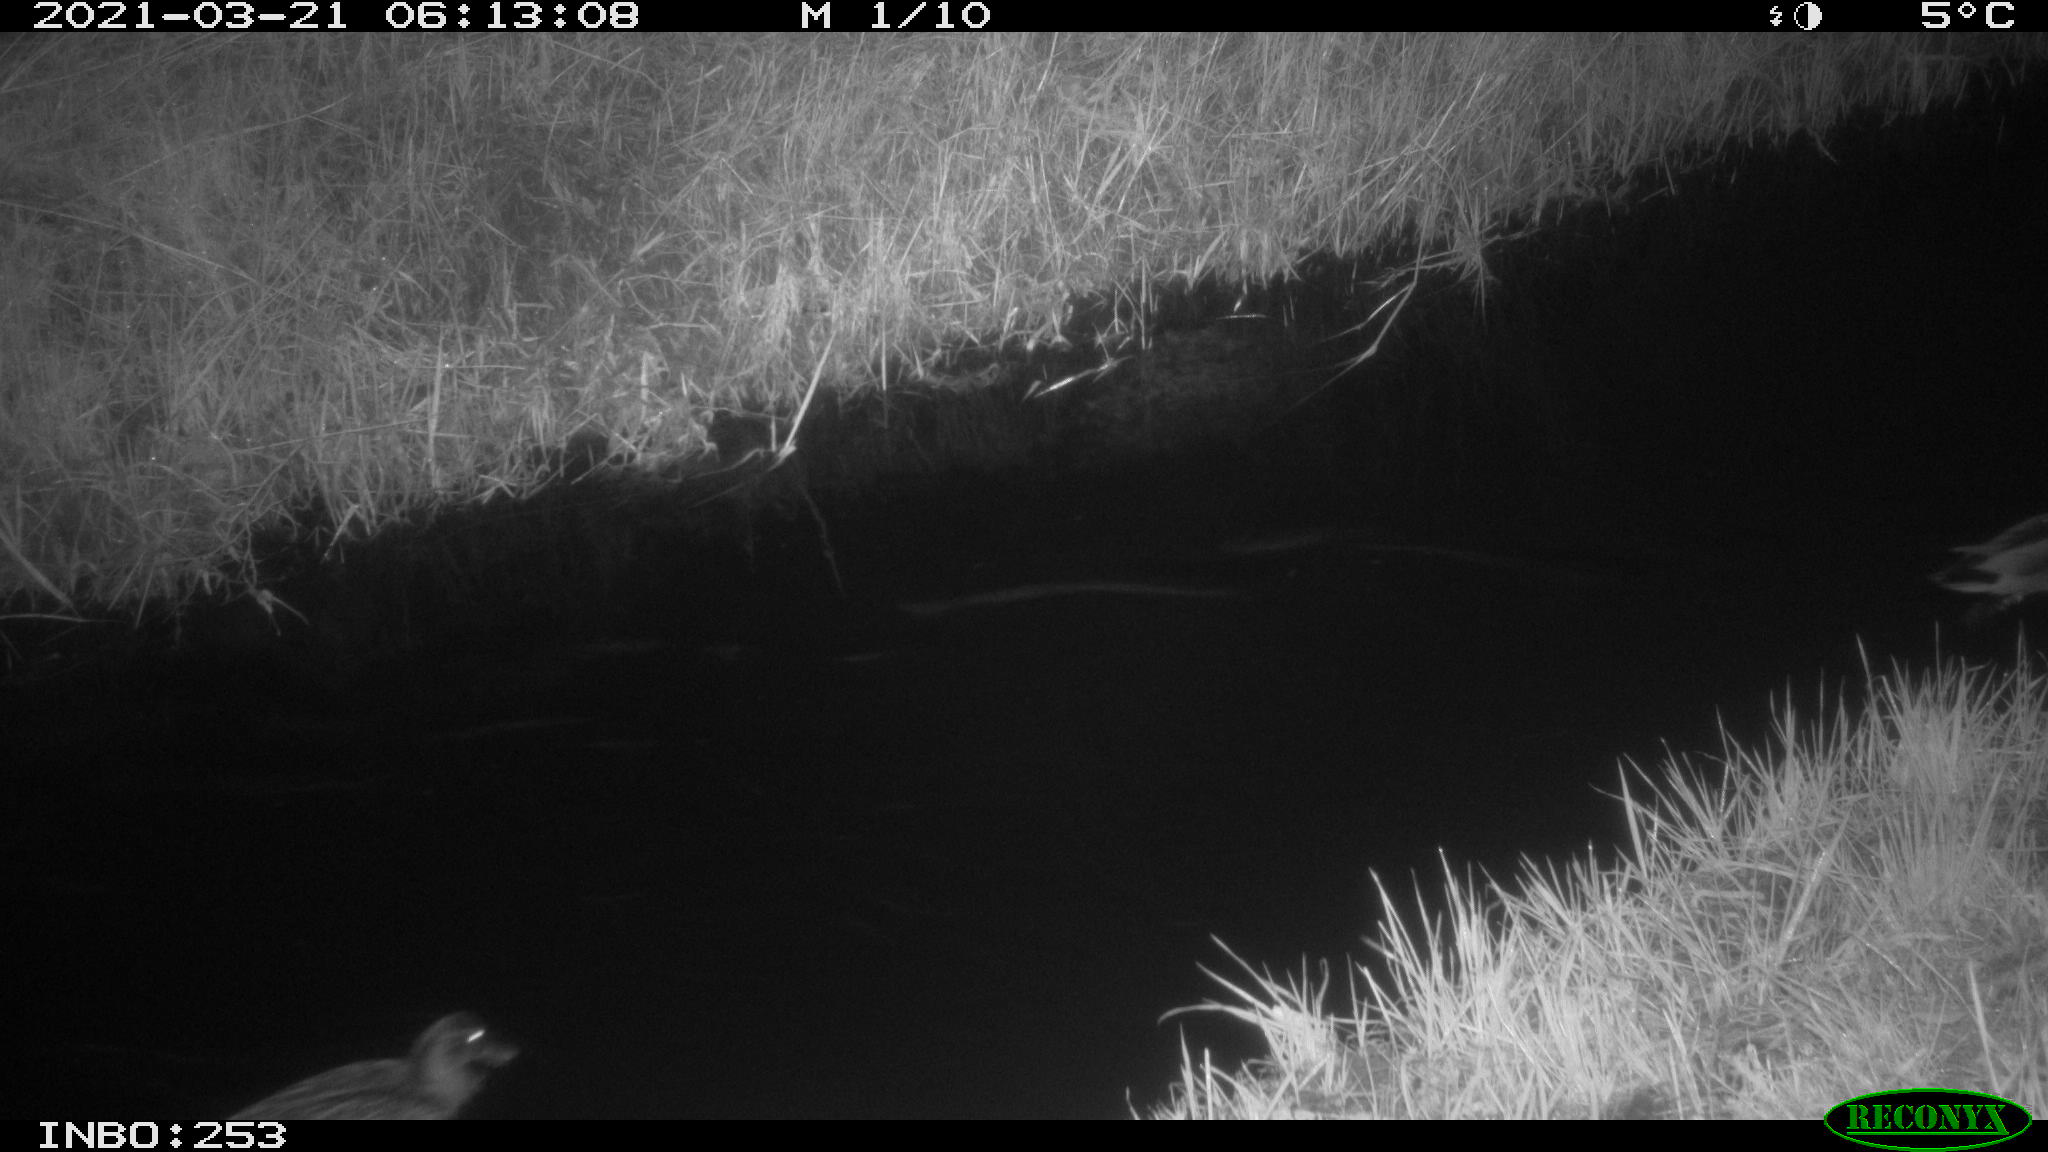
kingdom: Animalia
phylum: Chordata
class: Aves
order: Anseriformes
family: Anatidae
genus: Anas
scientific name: Anas platyrhynchos
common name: Mallard
